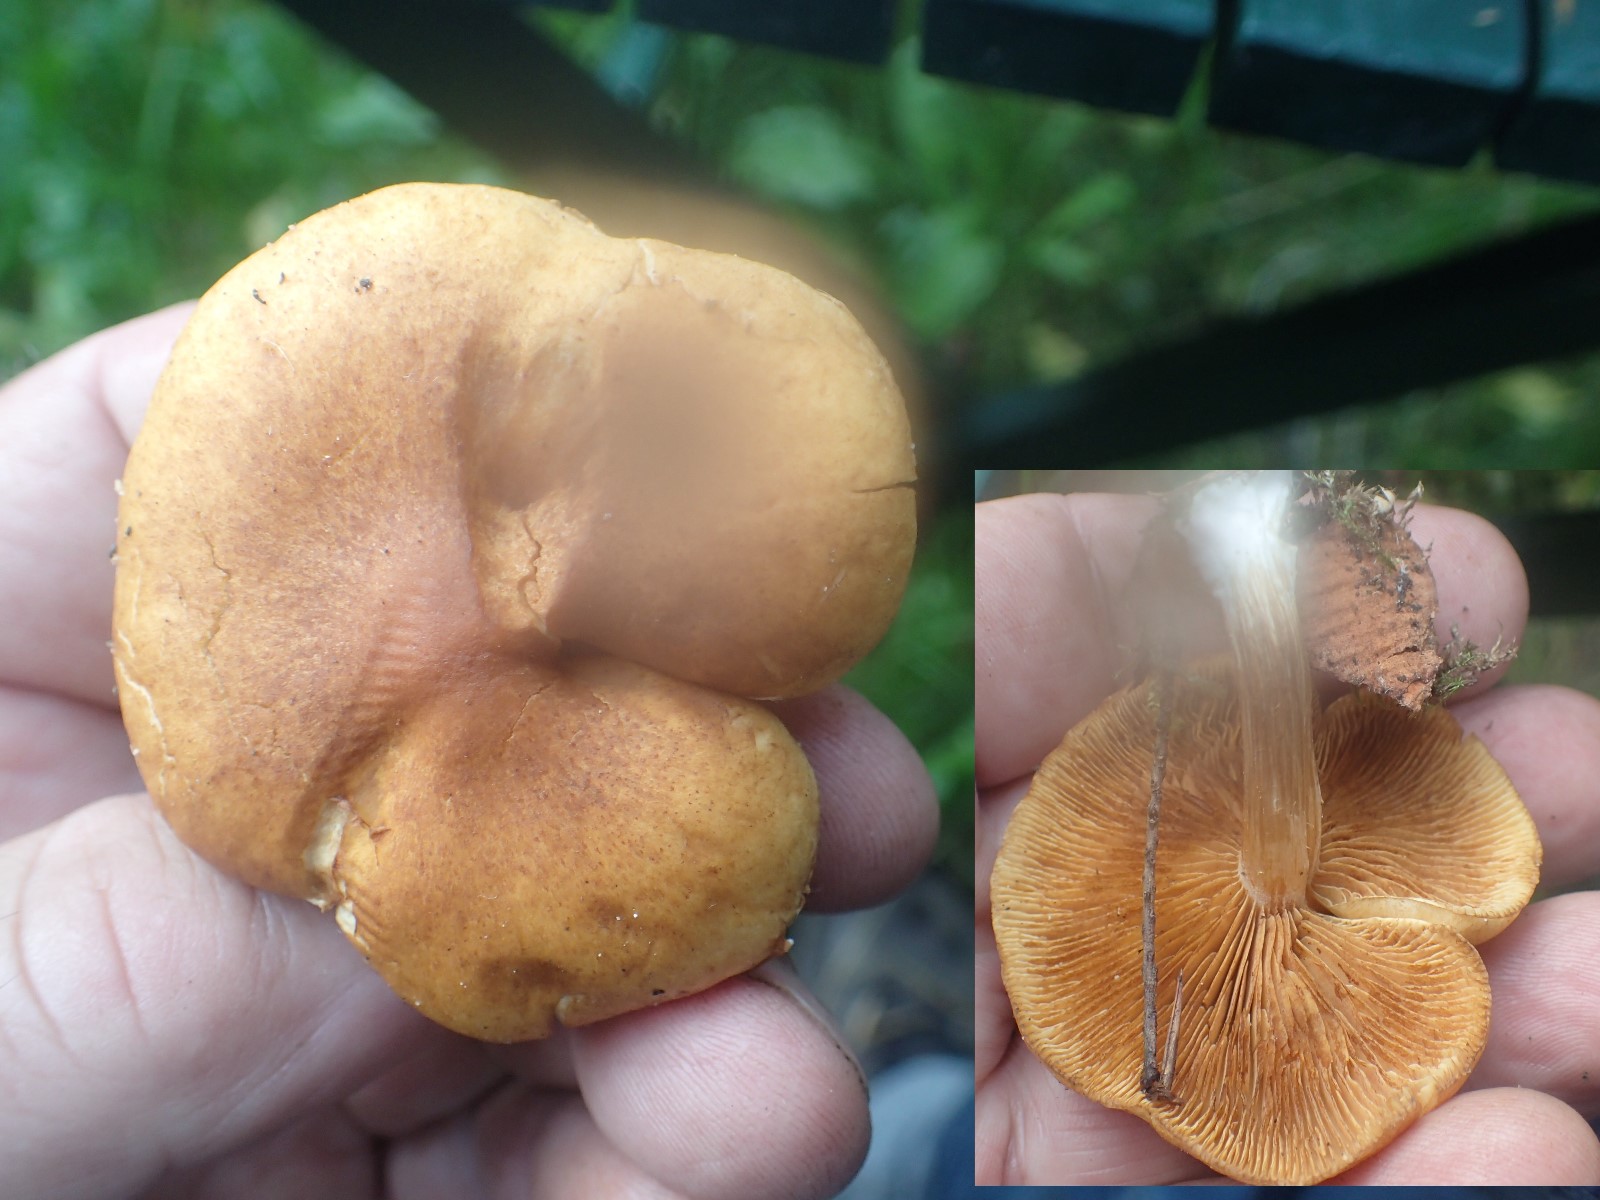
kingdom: Fungi
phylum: Basidiomycota
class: Agaricomycetes
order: Agaricales
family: Hymenogastraceae
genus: Gymnopilus
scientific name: Gymnopilus penetrans
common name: plettet flammehat
